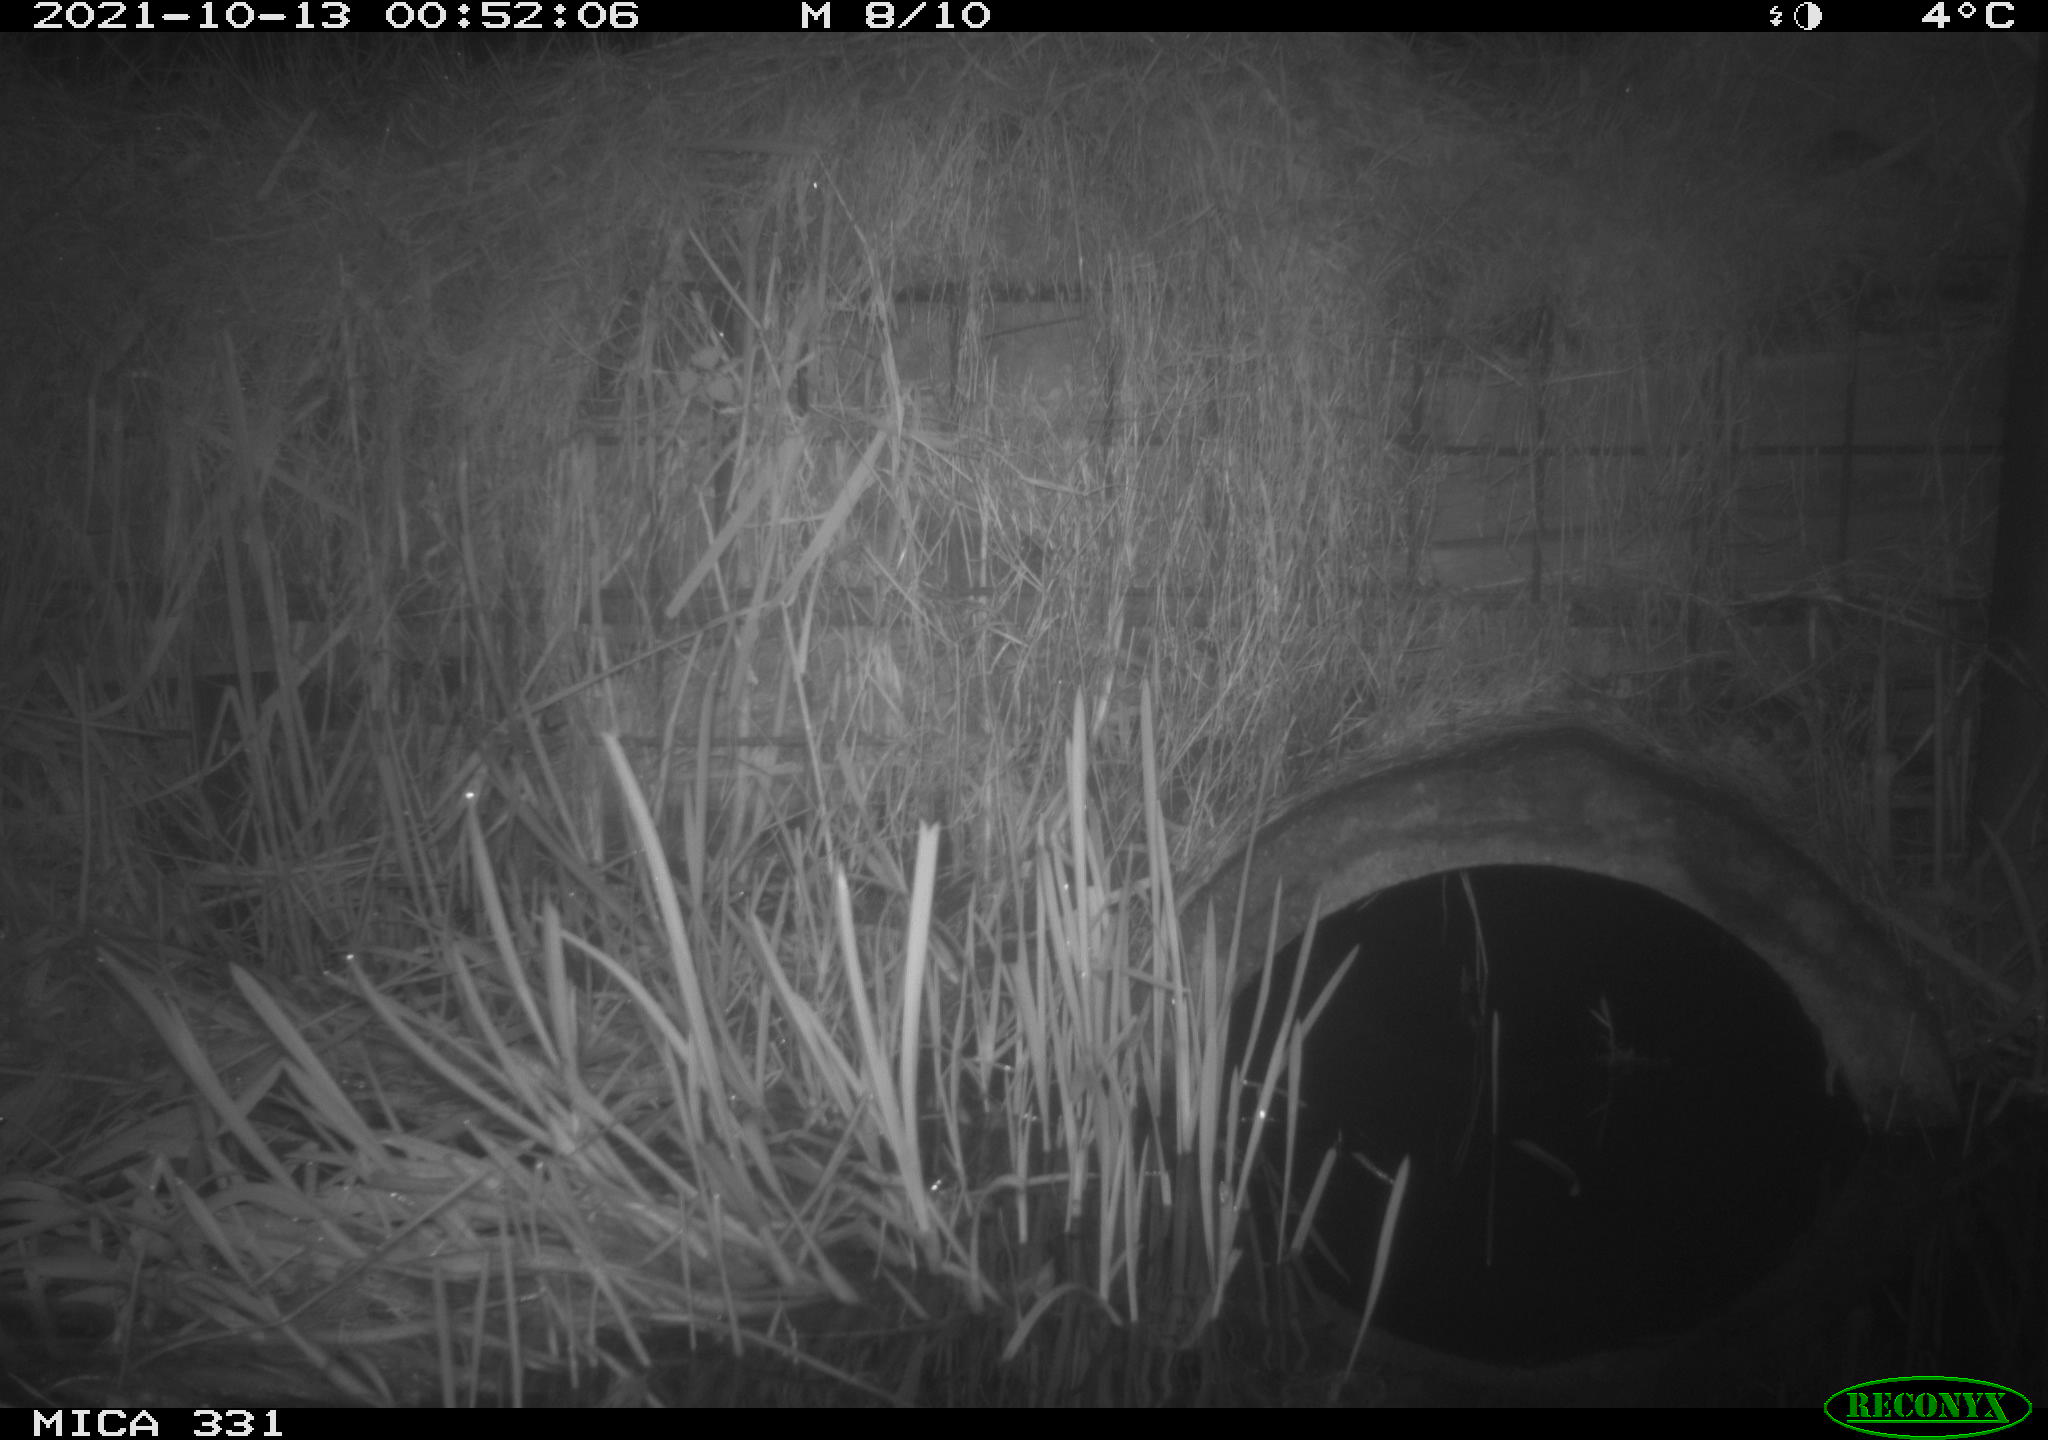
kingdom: Animalia
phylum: Chordata
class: Mammalia
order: Rodentia
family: Muridae
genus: Rattus
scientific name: Rattus norvegicus
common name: Brown rat
